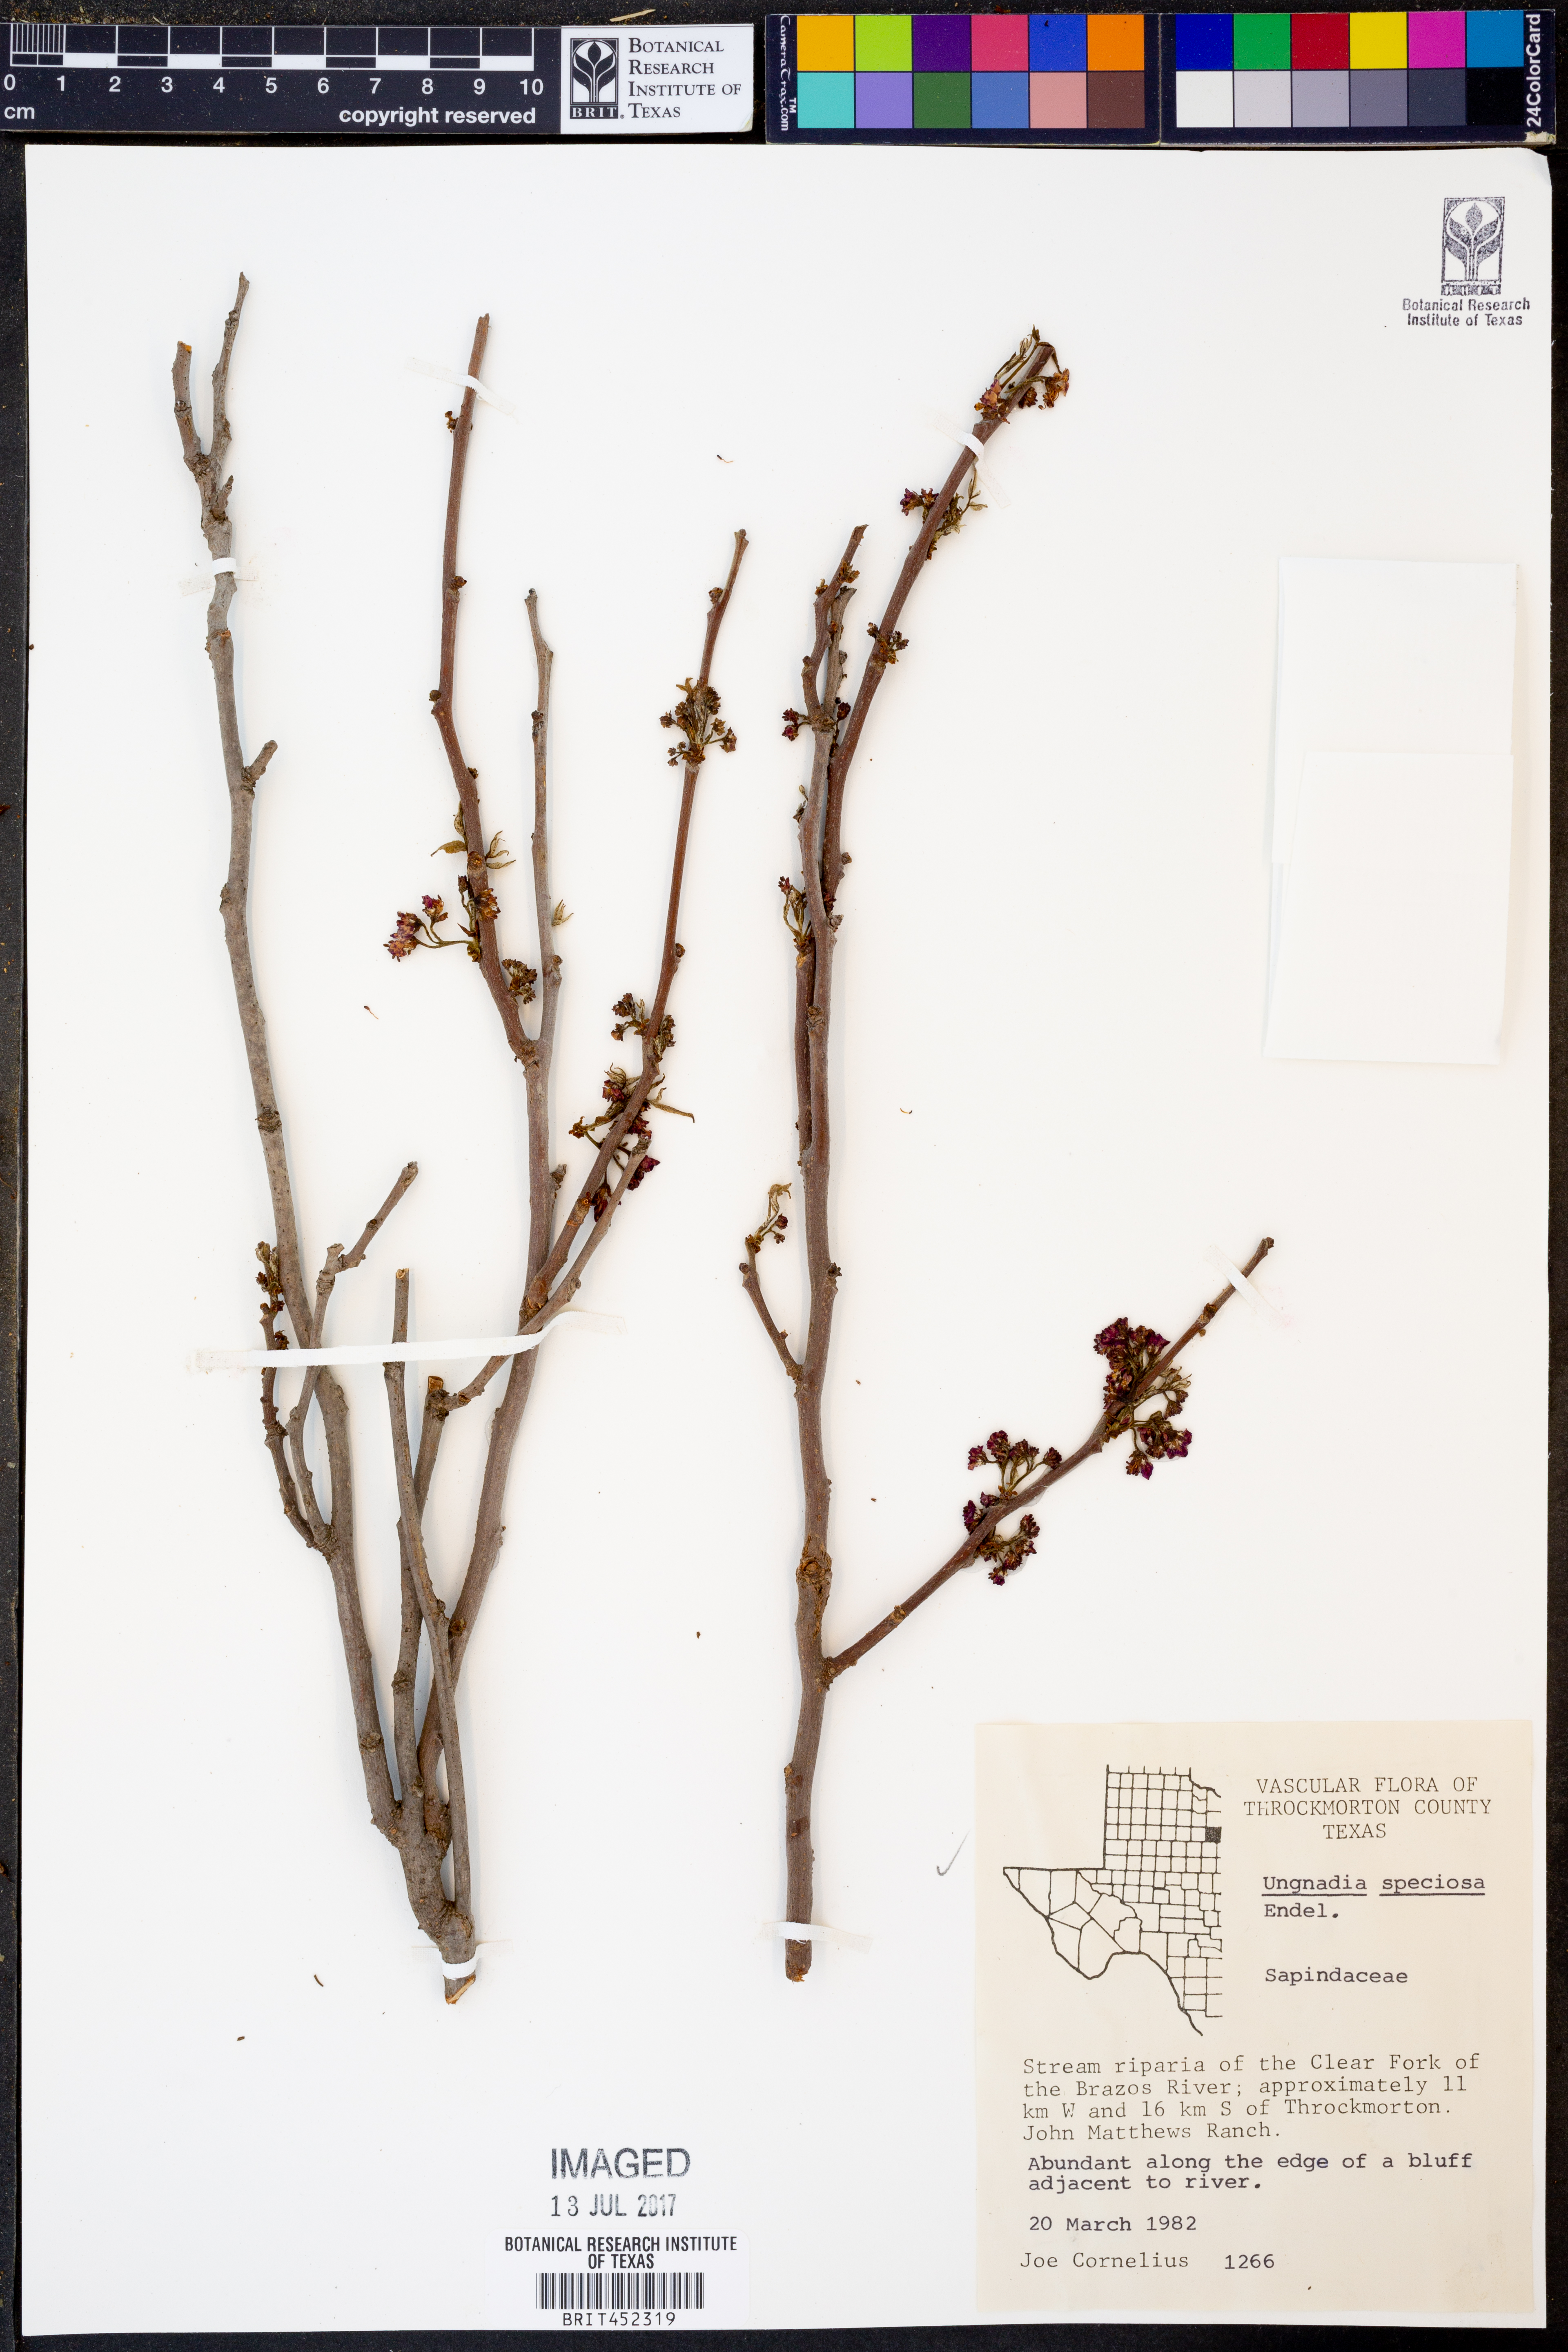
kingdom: Plantae
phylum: Tracheophyta
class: Magnoliopsida
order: Sapindales
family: Sapindaceae
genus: Ungnadia
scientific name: Ungnadia speciosa
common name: Texas-buckeye
